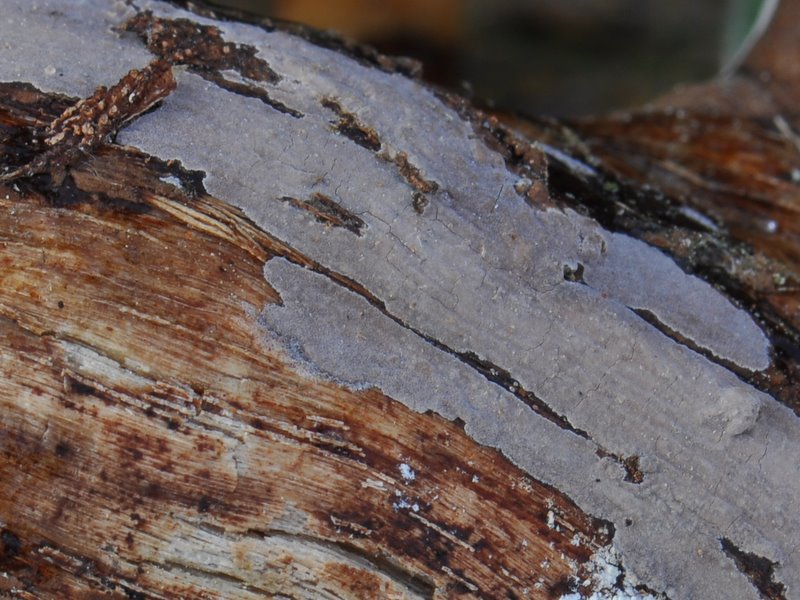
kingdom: Fungi
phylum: Basidiomycota
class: Agaricomycetes
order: Russulales
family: Peniophoraceae
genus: Peniophora
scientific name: Peniophora lycii
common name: grynet voksskind
